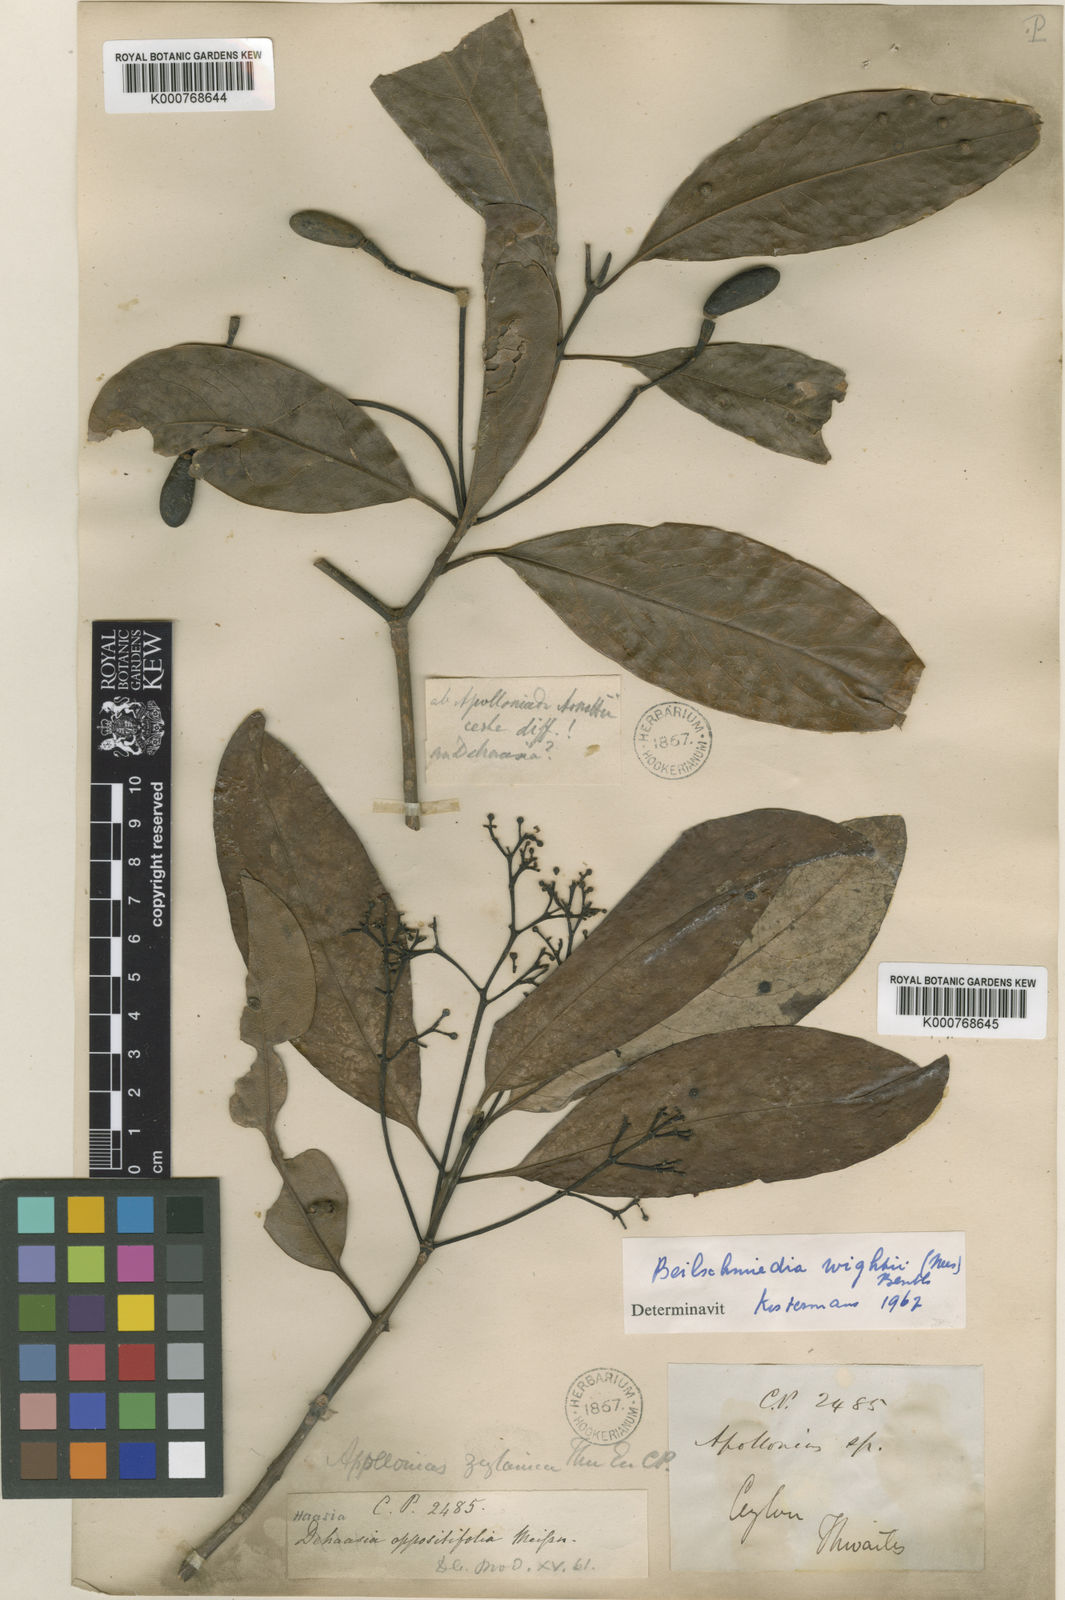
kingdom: Plantae
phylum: Tracheophyta
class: Magnoliopsida
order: Laurales
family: Lauraceae
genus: Beilschmiedia
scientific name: Beilschmiedia zeylanica
